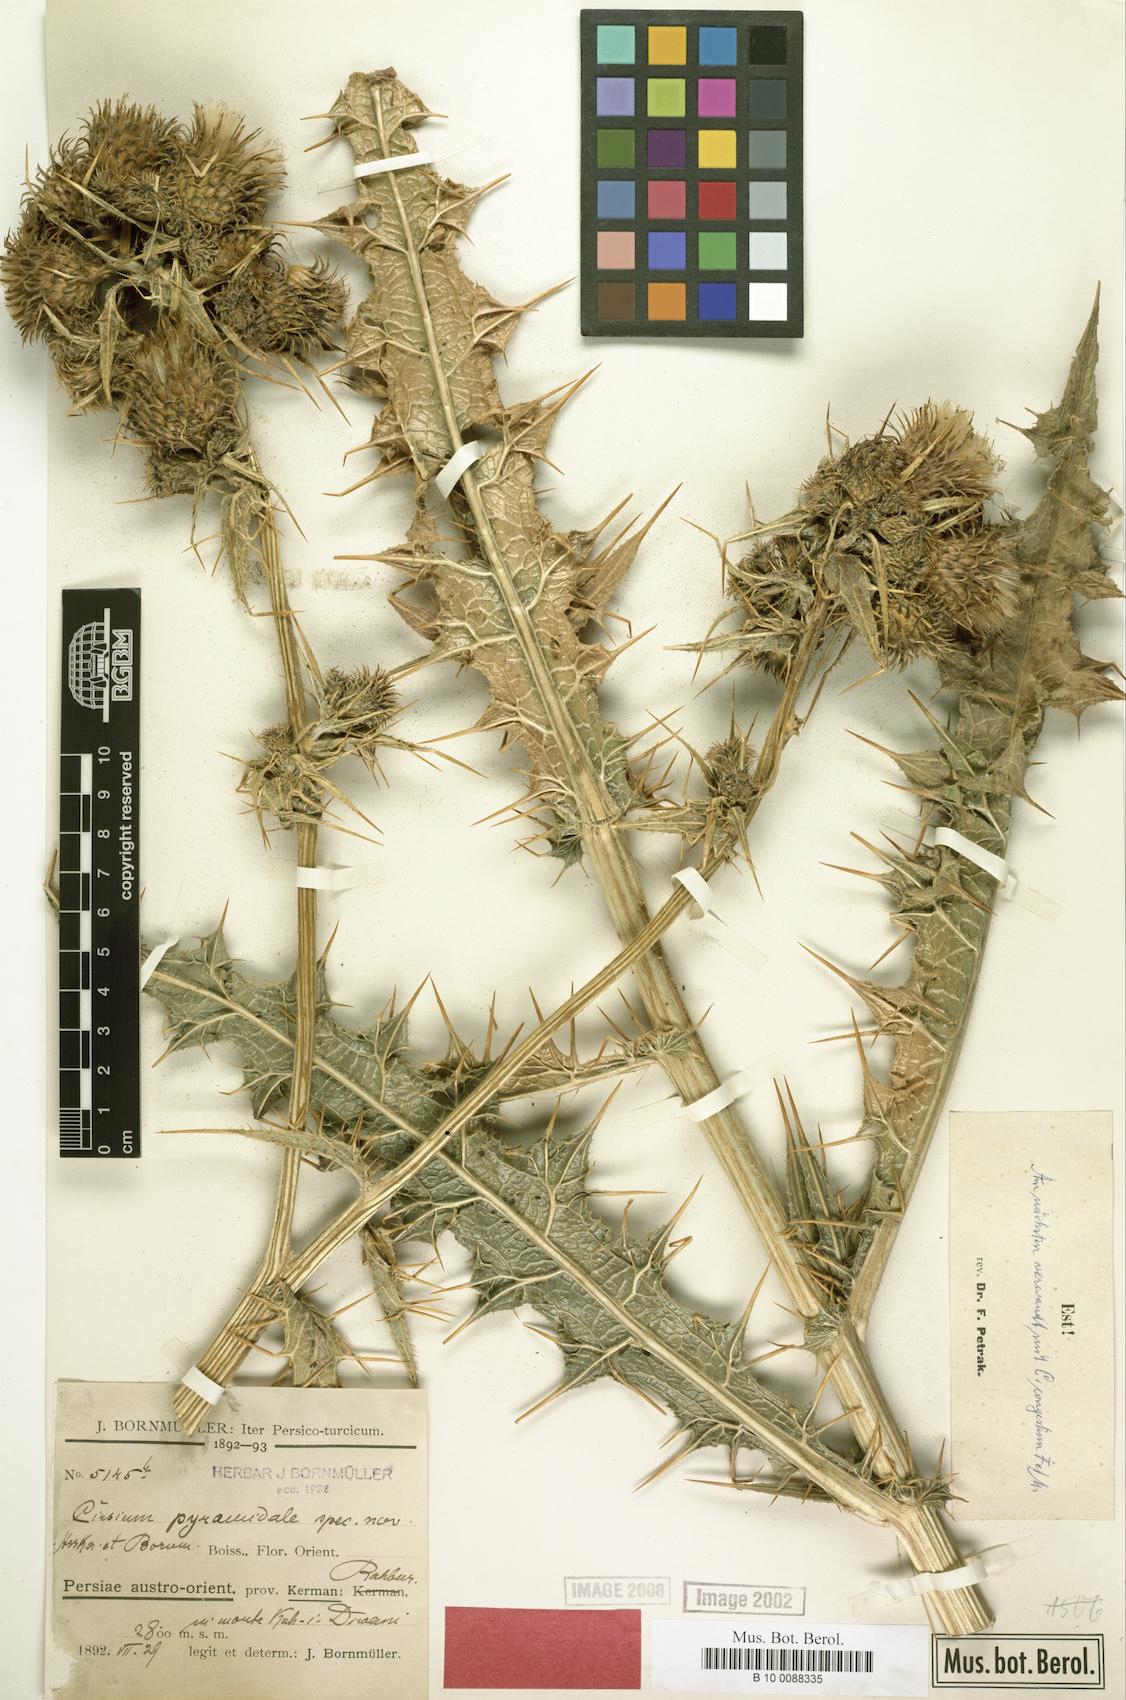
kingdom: Plantae
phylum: Tracheophyta
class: Magnoliopsida
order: Asterales
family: Asteraceae
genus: Lophiolepis
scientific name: Lophiolepis pyramidalis
